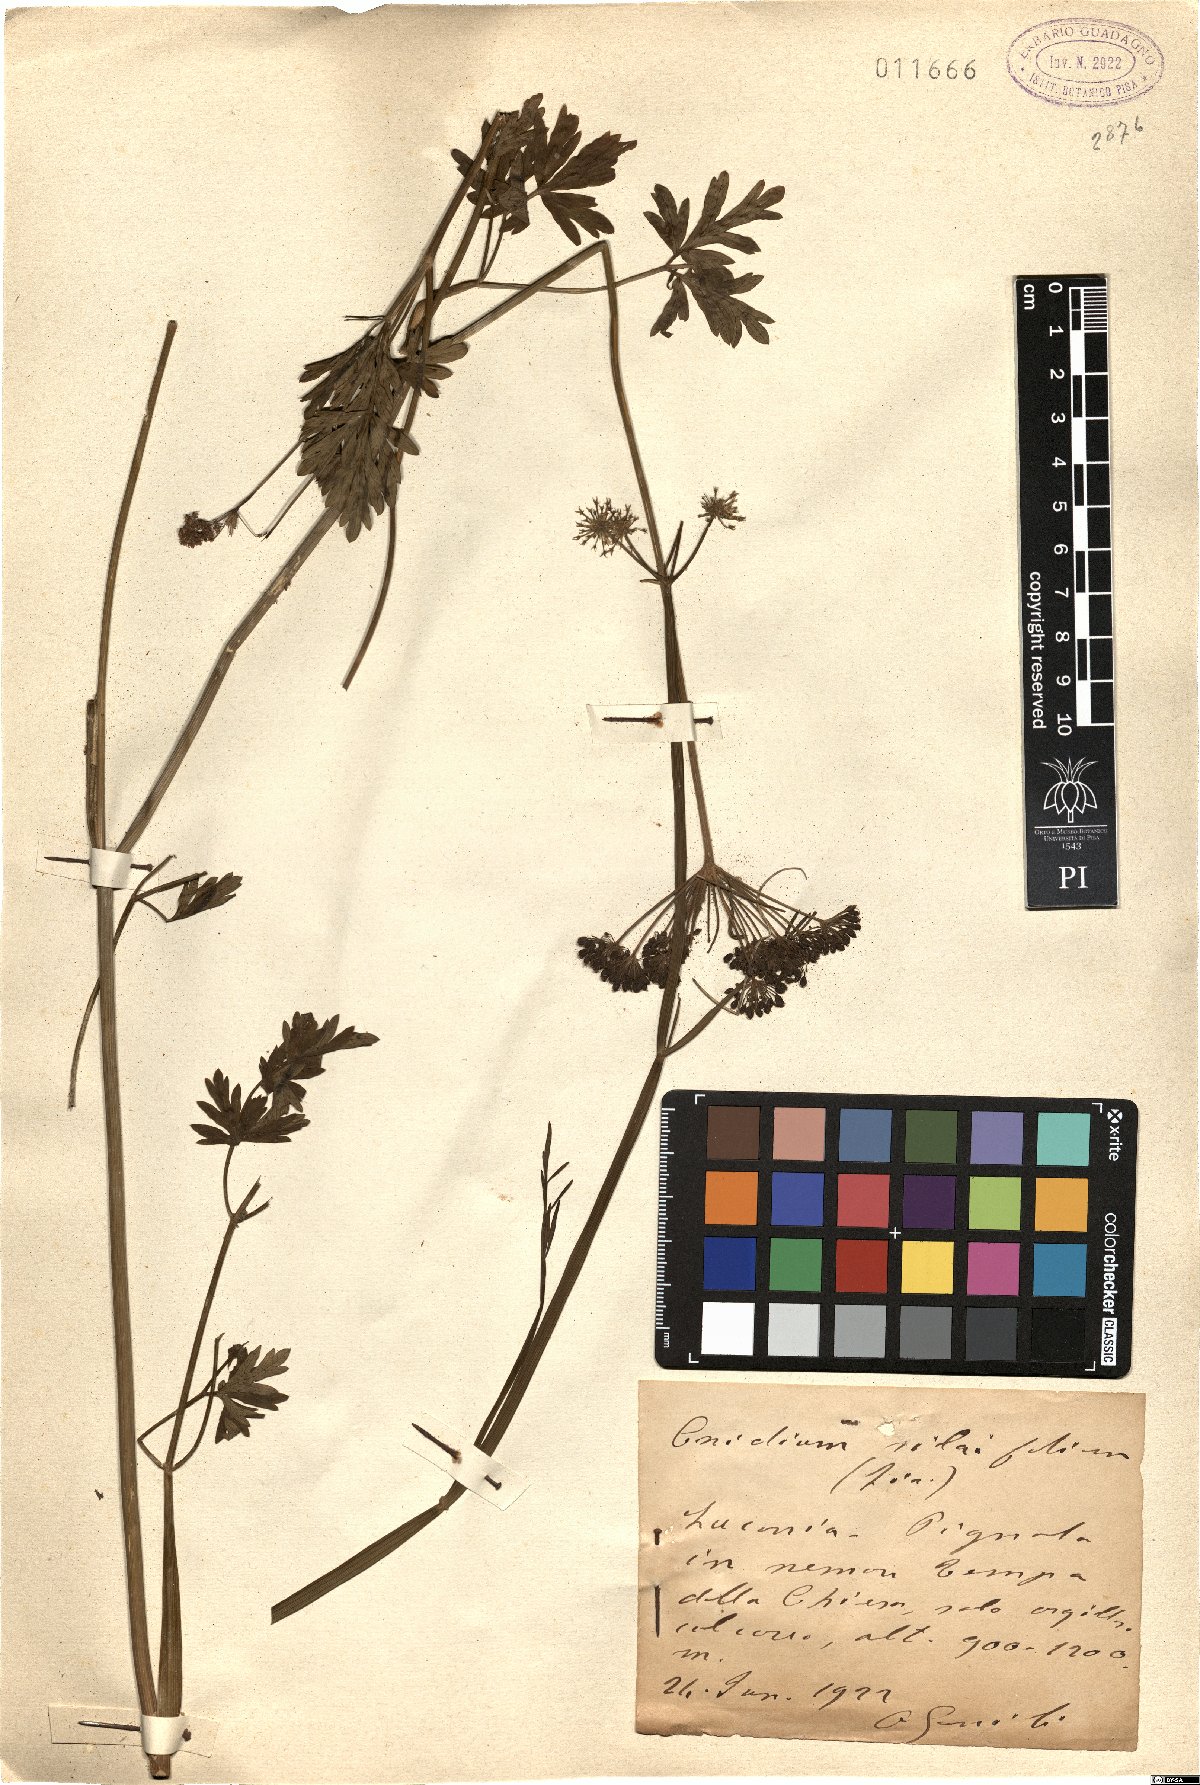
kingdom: Plantae
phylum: Tracheophyta
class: Magnoliopsida
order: Apiales
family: Apiaceae
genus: Katapsuxis
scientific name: Katapsuxis silaifolia
